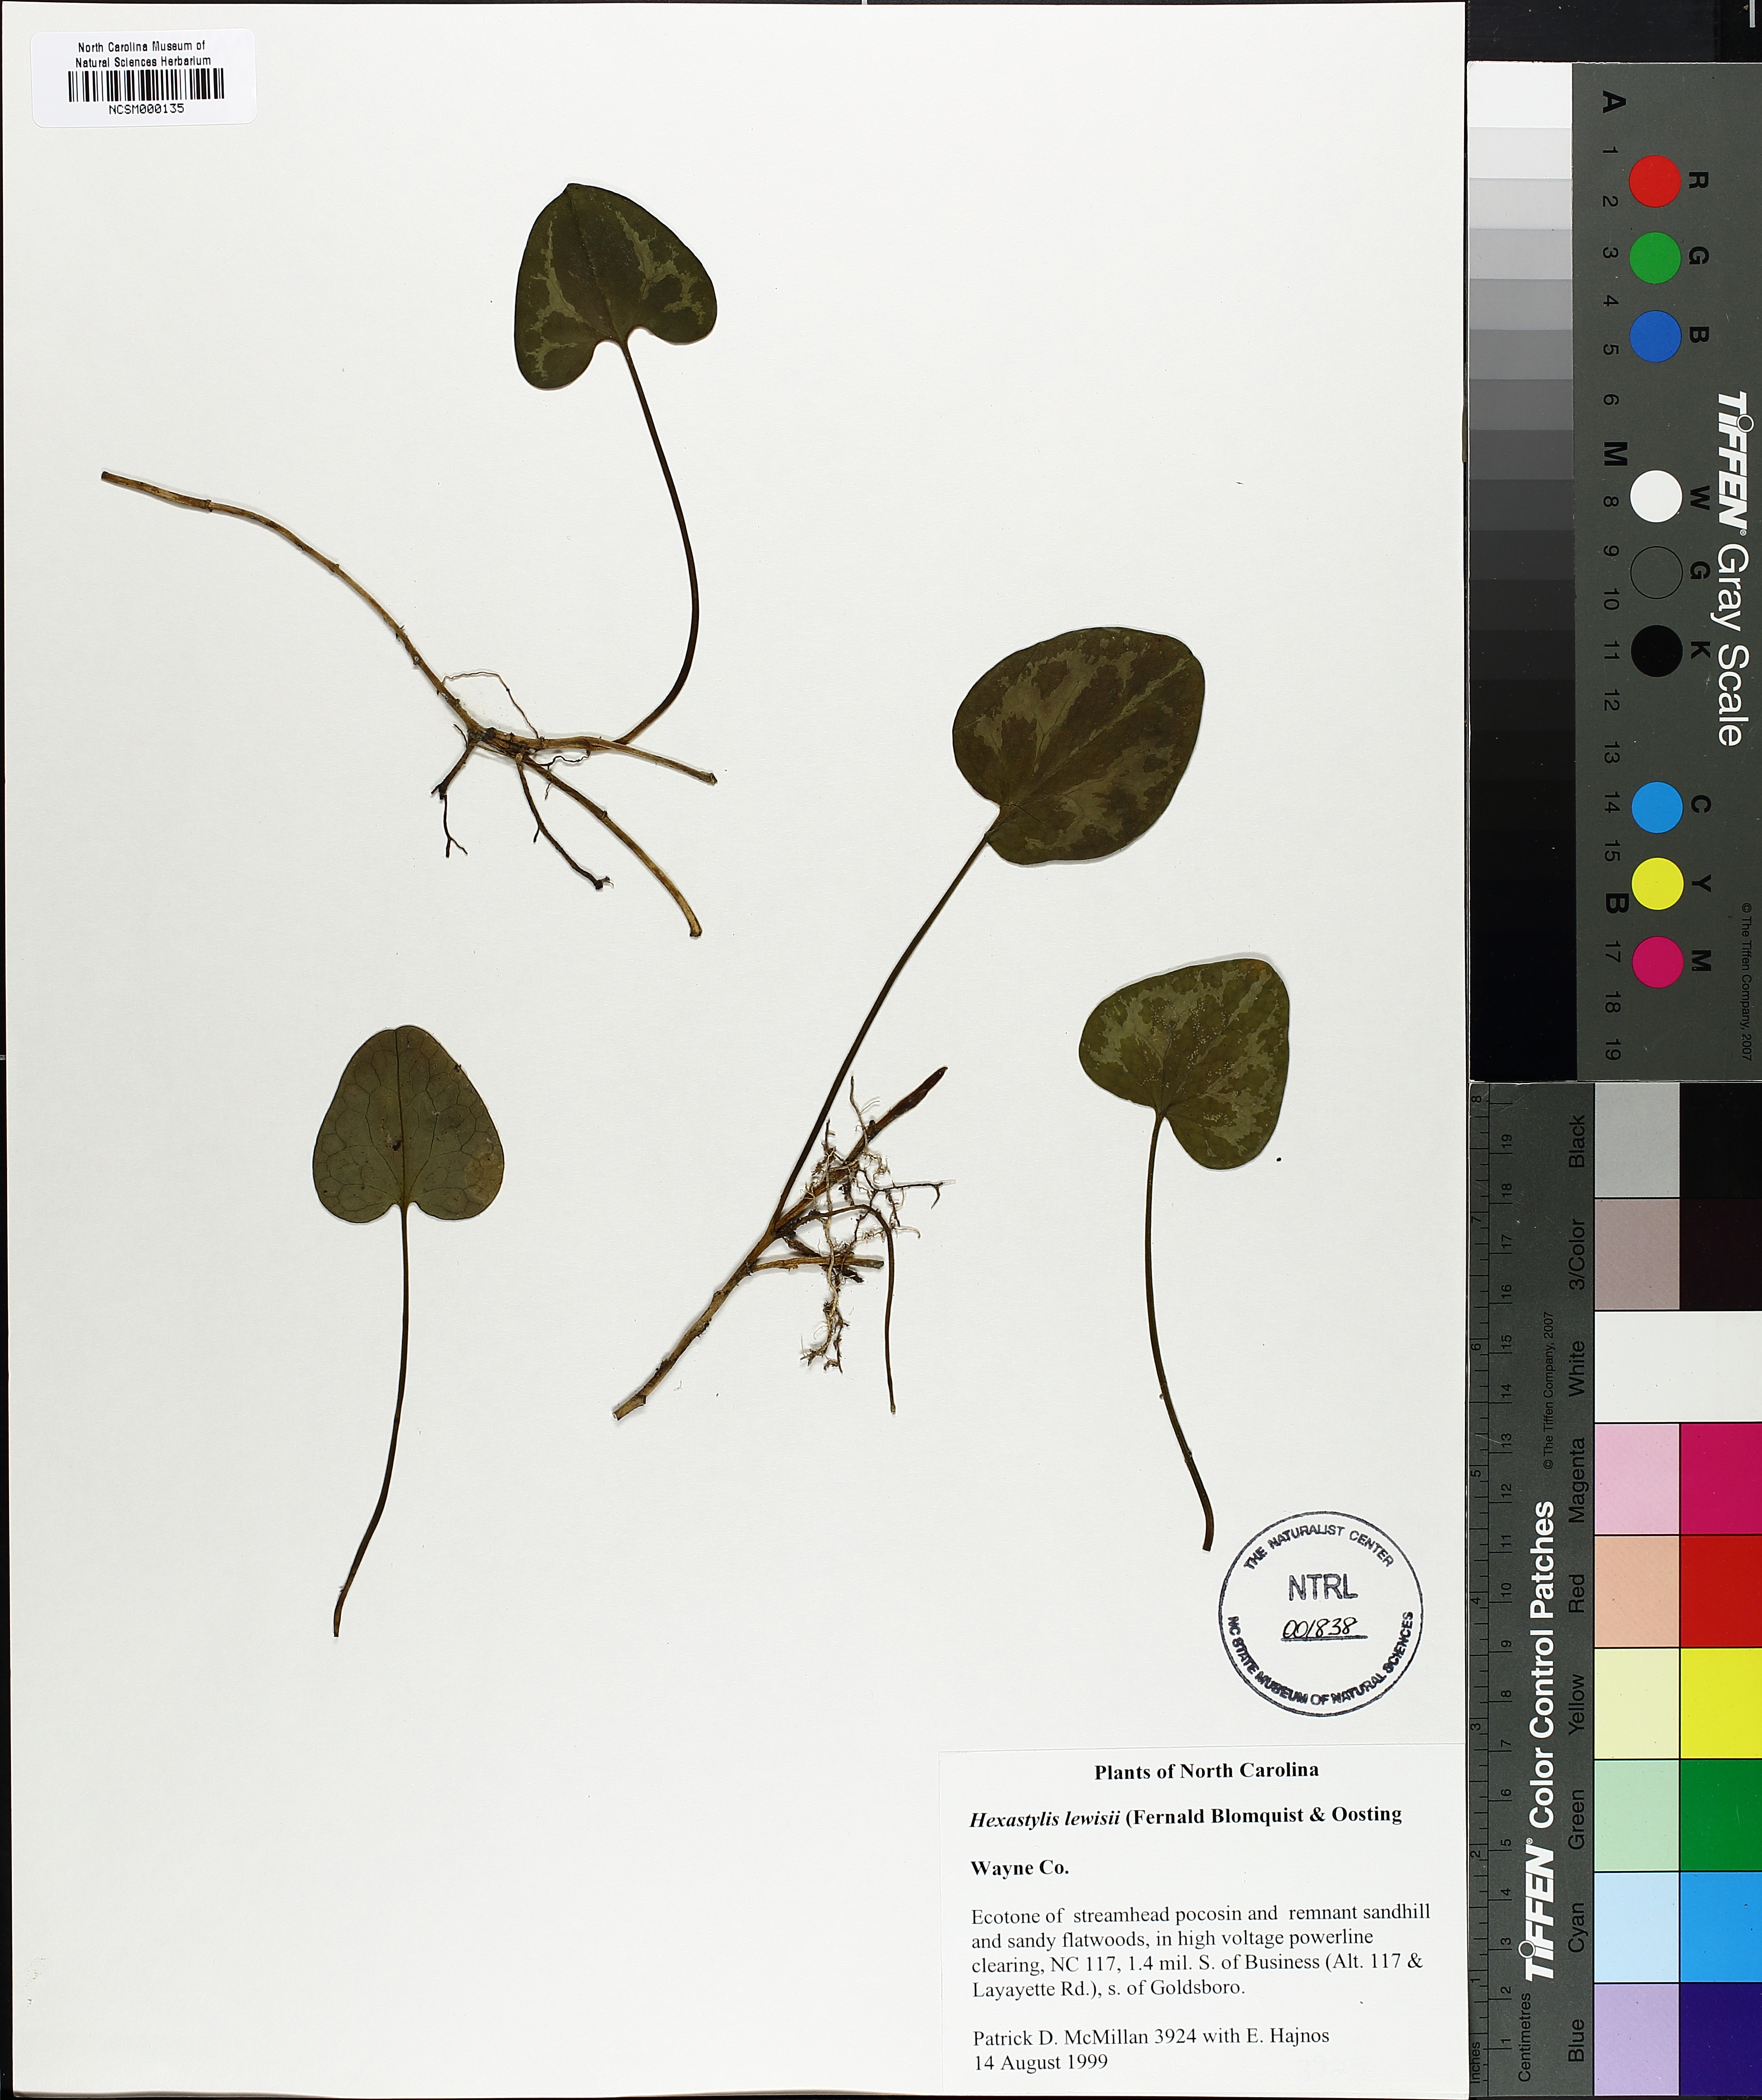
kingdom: Plantae
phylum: Tracheophyta
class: Magnoliopsida
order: Piperales
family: Aristolochiaceae
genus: Hexastylis
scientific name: Hexastylis lewisii
